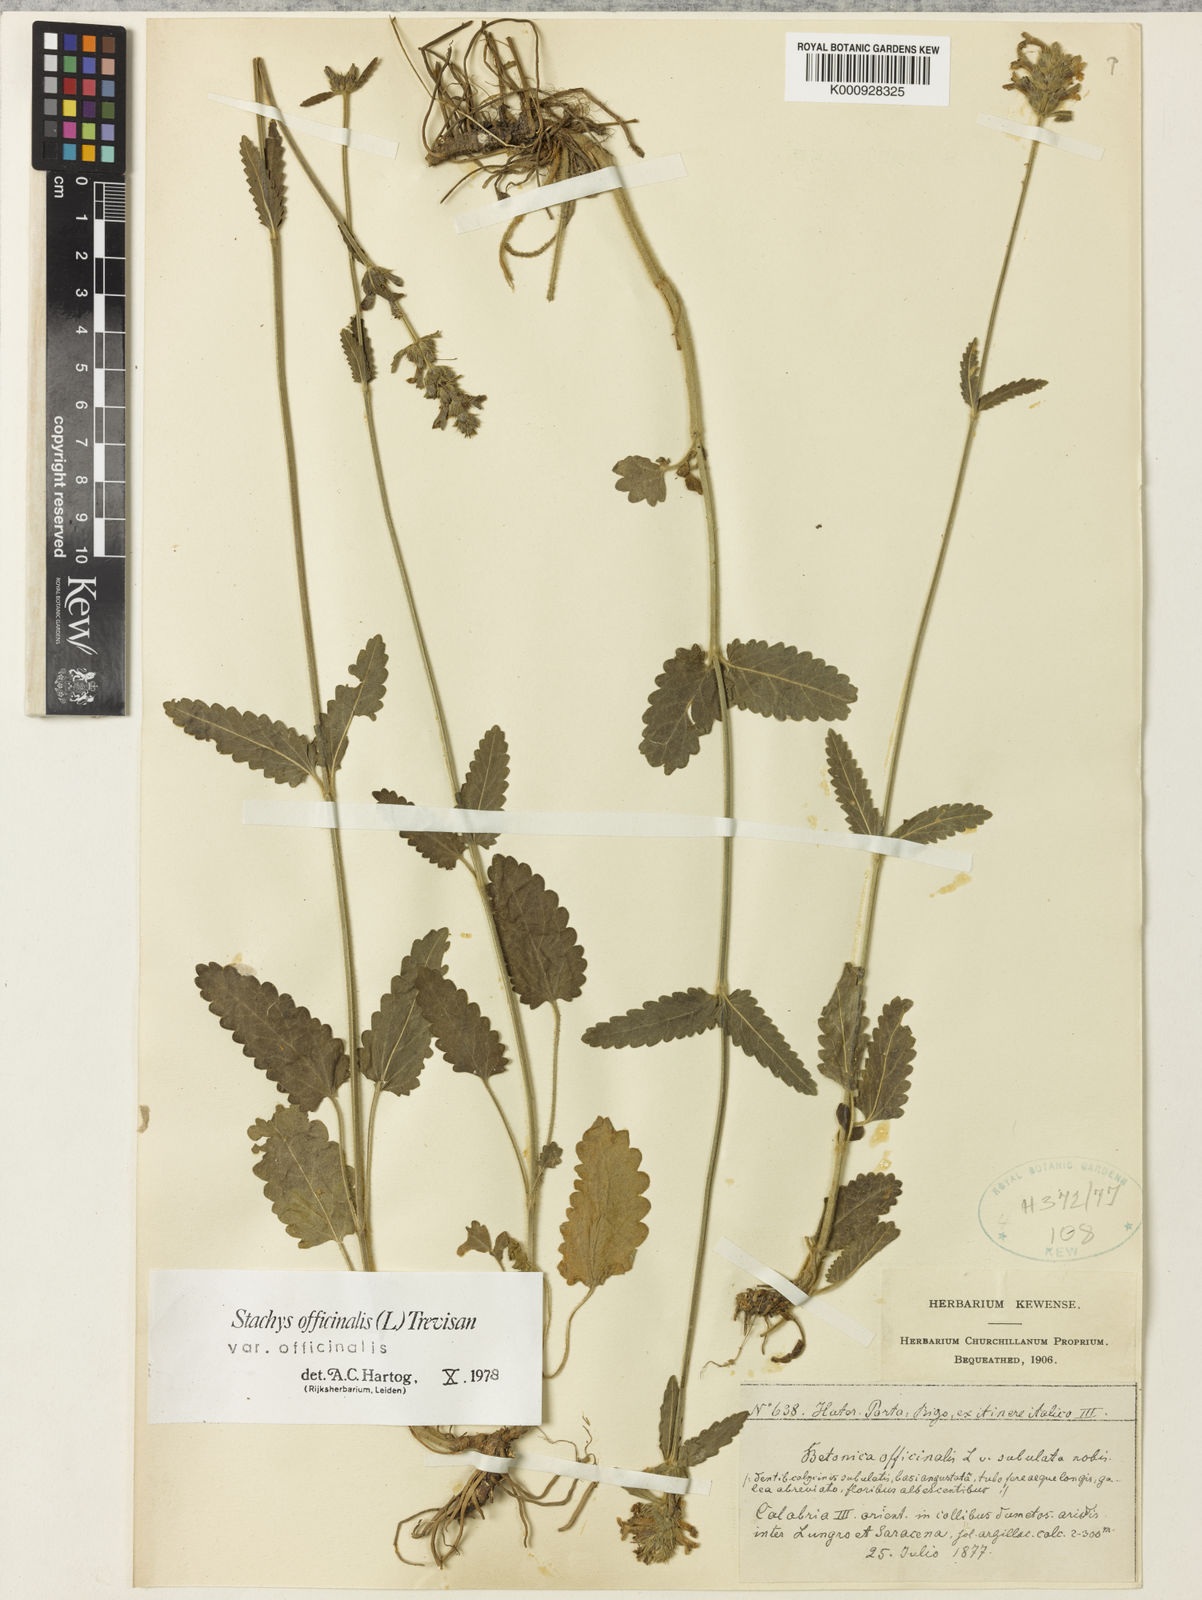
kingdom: Plantae
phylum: Tracheophyta
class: Magnoliopsida
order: Lamiales
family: Lamiaceae
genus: Betonica
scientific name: Betonica officinalis
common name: Bishop's-wort
